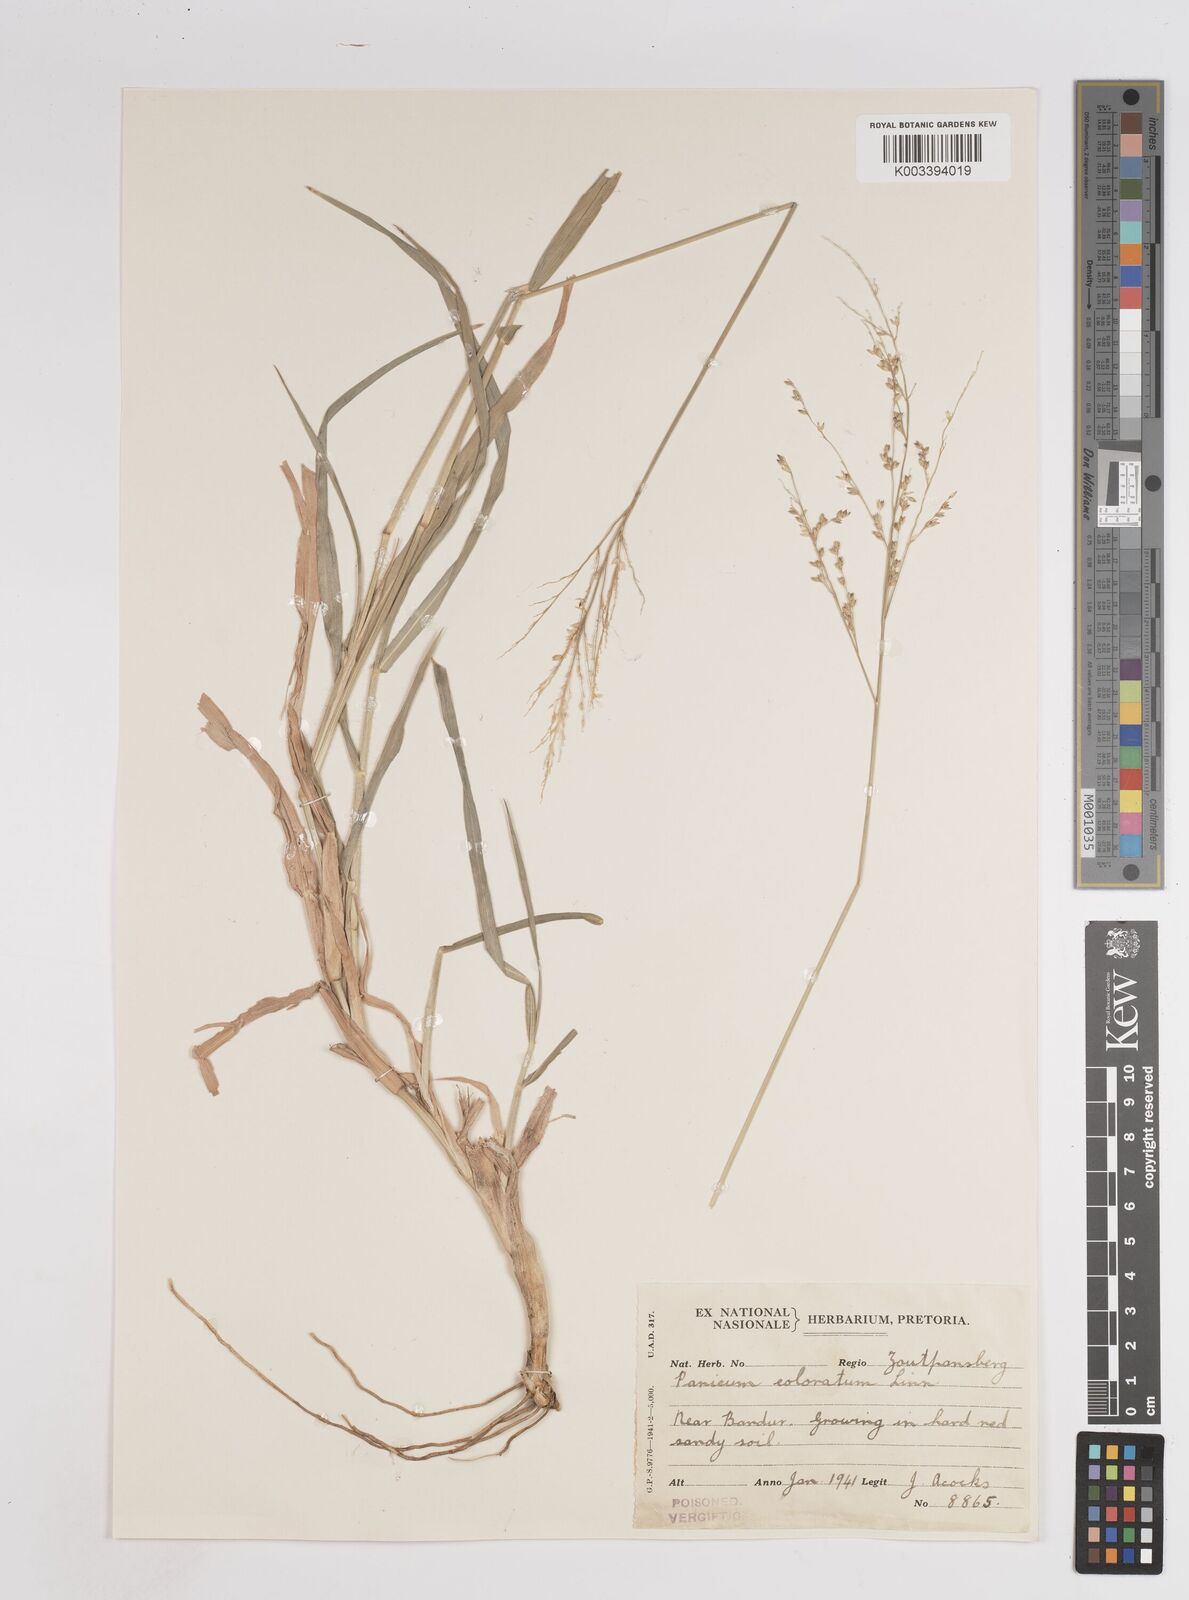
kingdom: Plantae
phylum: Tracheophyta
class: Liliopsida
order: Poales
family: Poaceae
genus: Panicum
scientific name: Panicum coloratum
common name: Kleingrass
